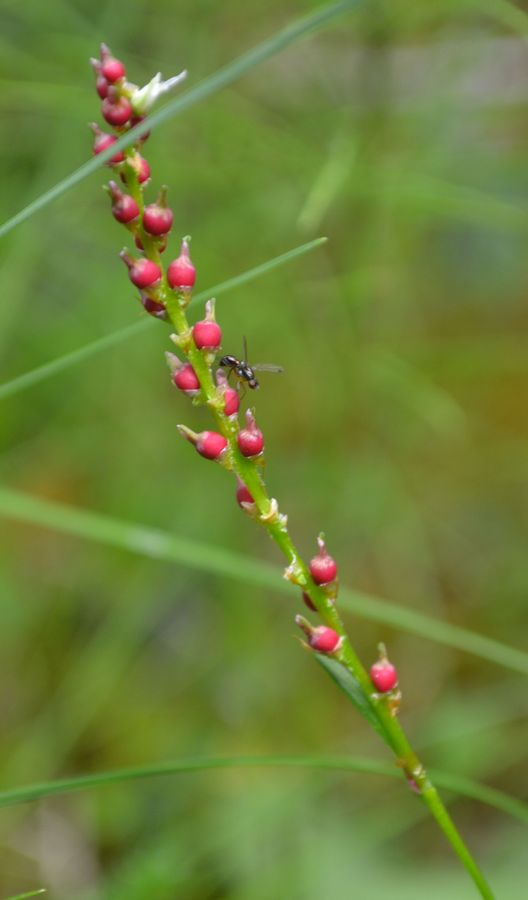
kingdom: Plantae
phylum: Tracheophyta
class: Magnoliopsida
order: Caryophyllales
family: Polygonaceae
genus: Bistorta
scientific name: Bistorta vivipara
